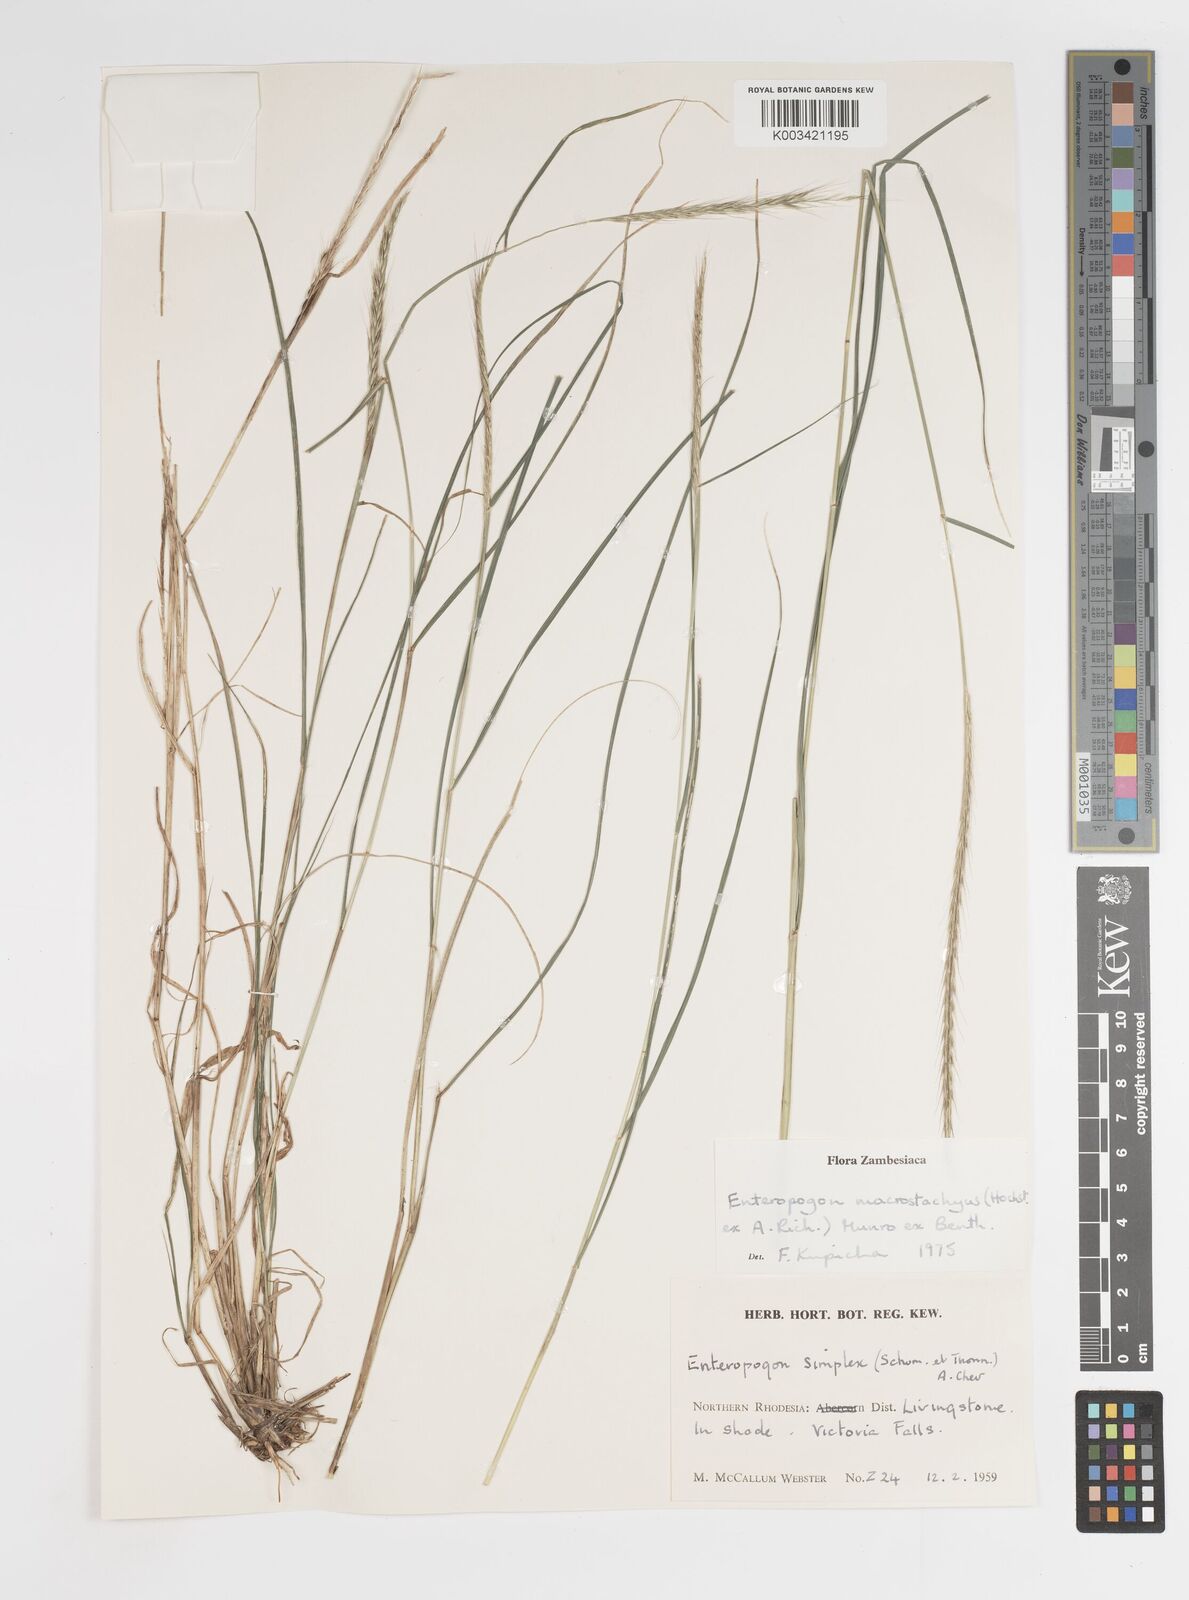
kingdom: Plantae
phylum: Tracheophyta
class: Liliopsida
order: Poales
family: Poaceae
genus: Enteropogon
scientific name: Enteropogon macrostachyus
